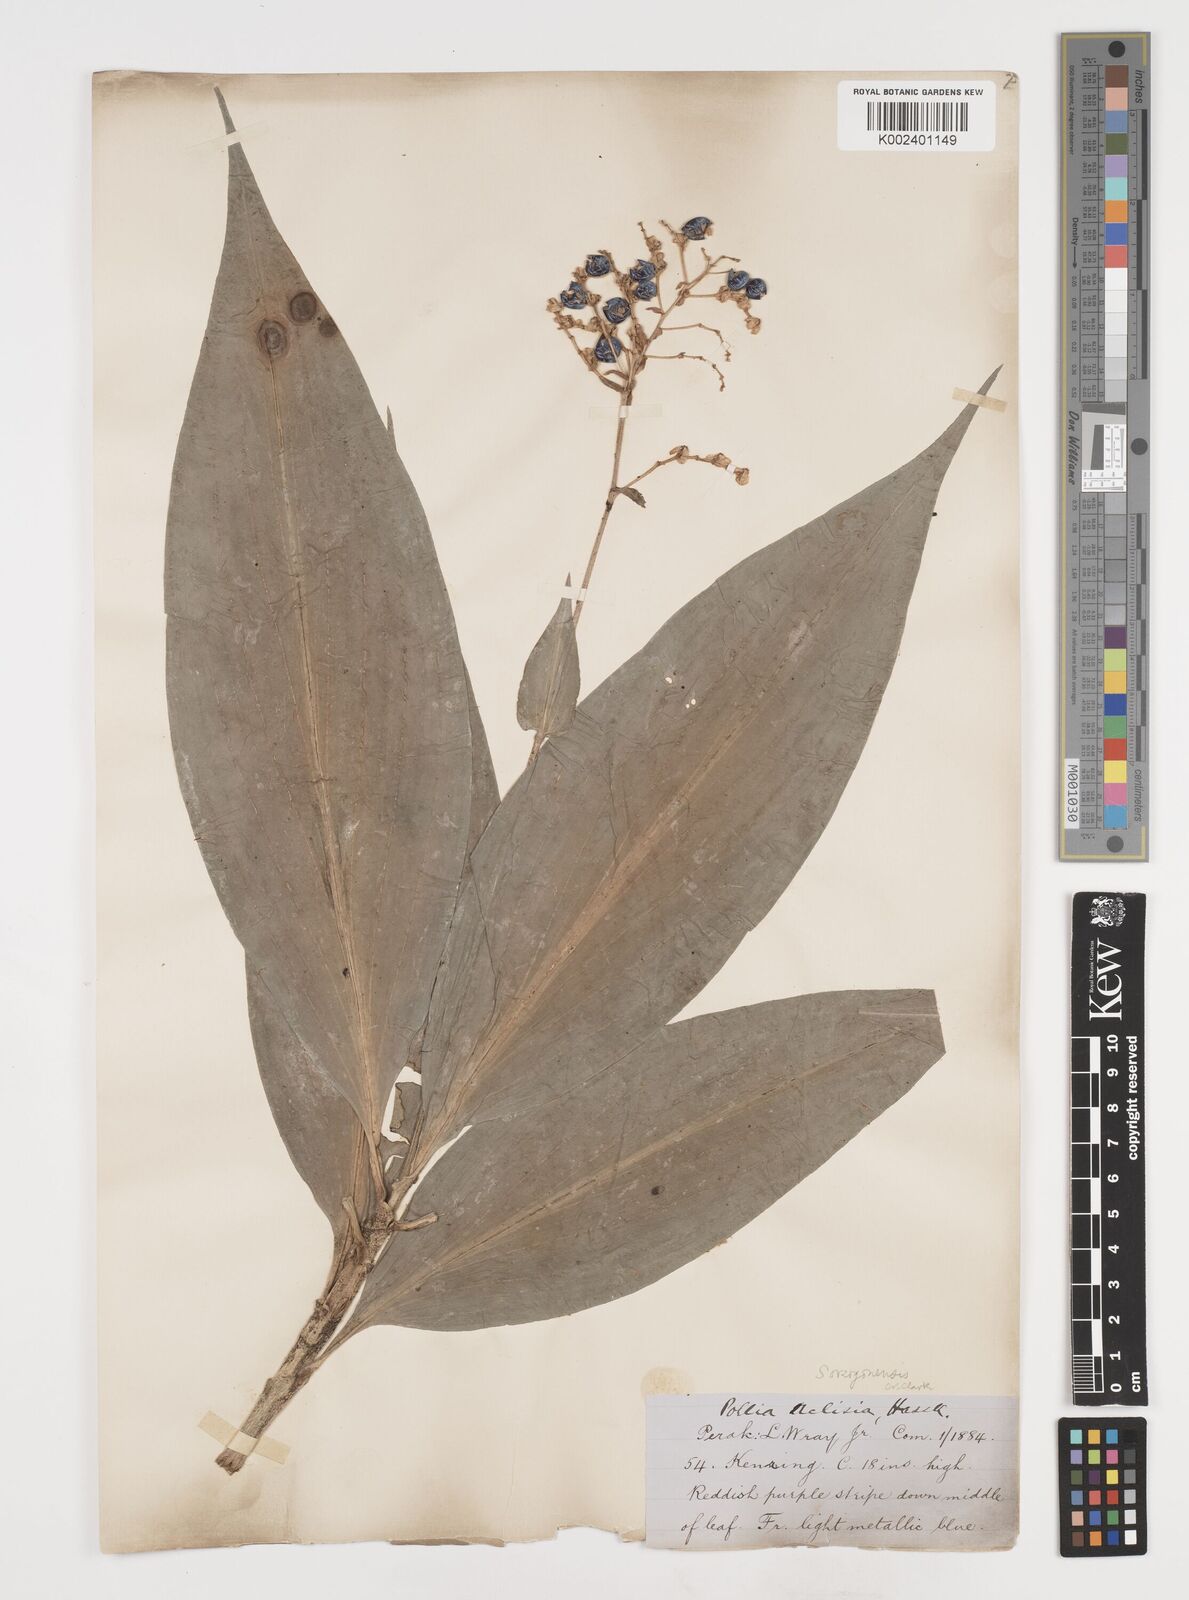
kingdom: Plantae
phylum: Tracheophyta
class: Liliopsida
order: Commelinales
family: Commelinaceae
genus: Pollia
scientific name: Pollia secundiflora
